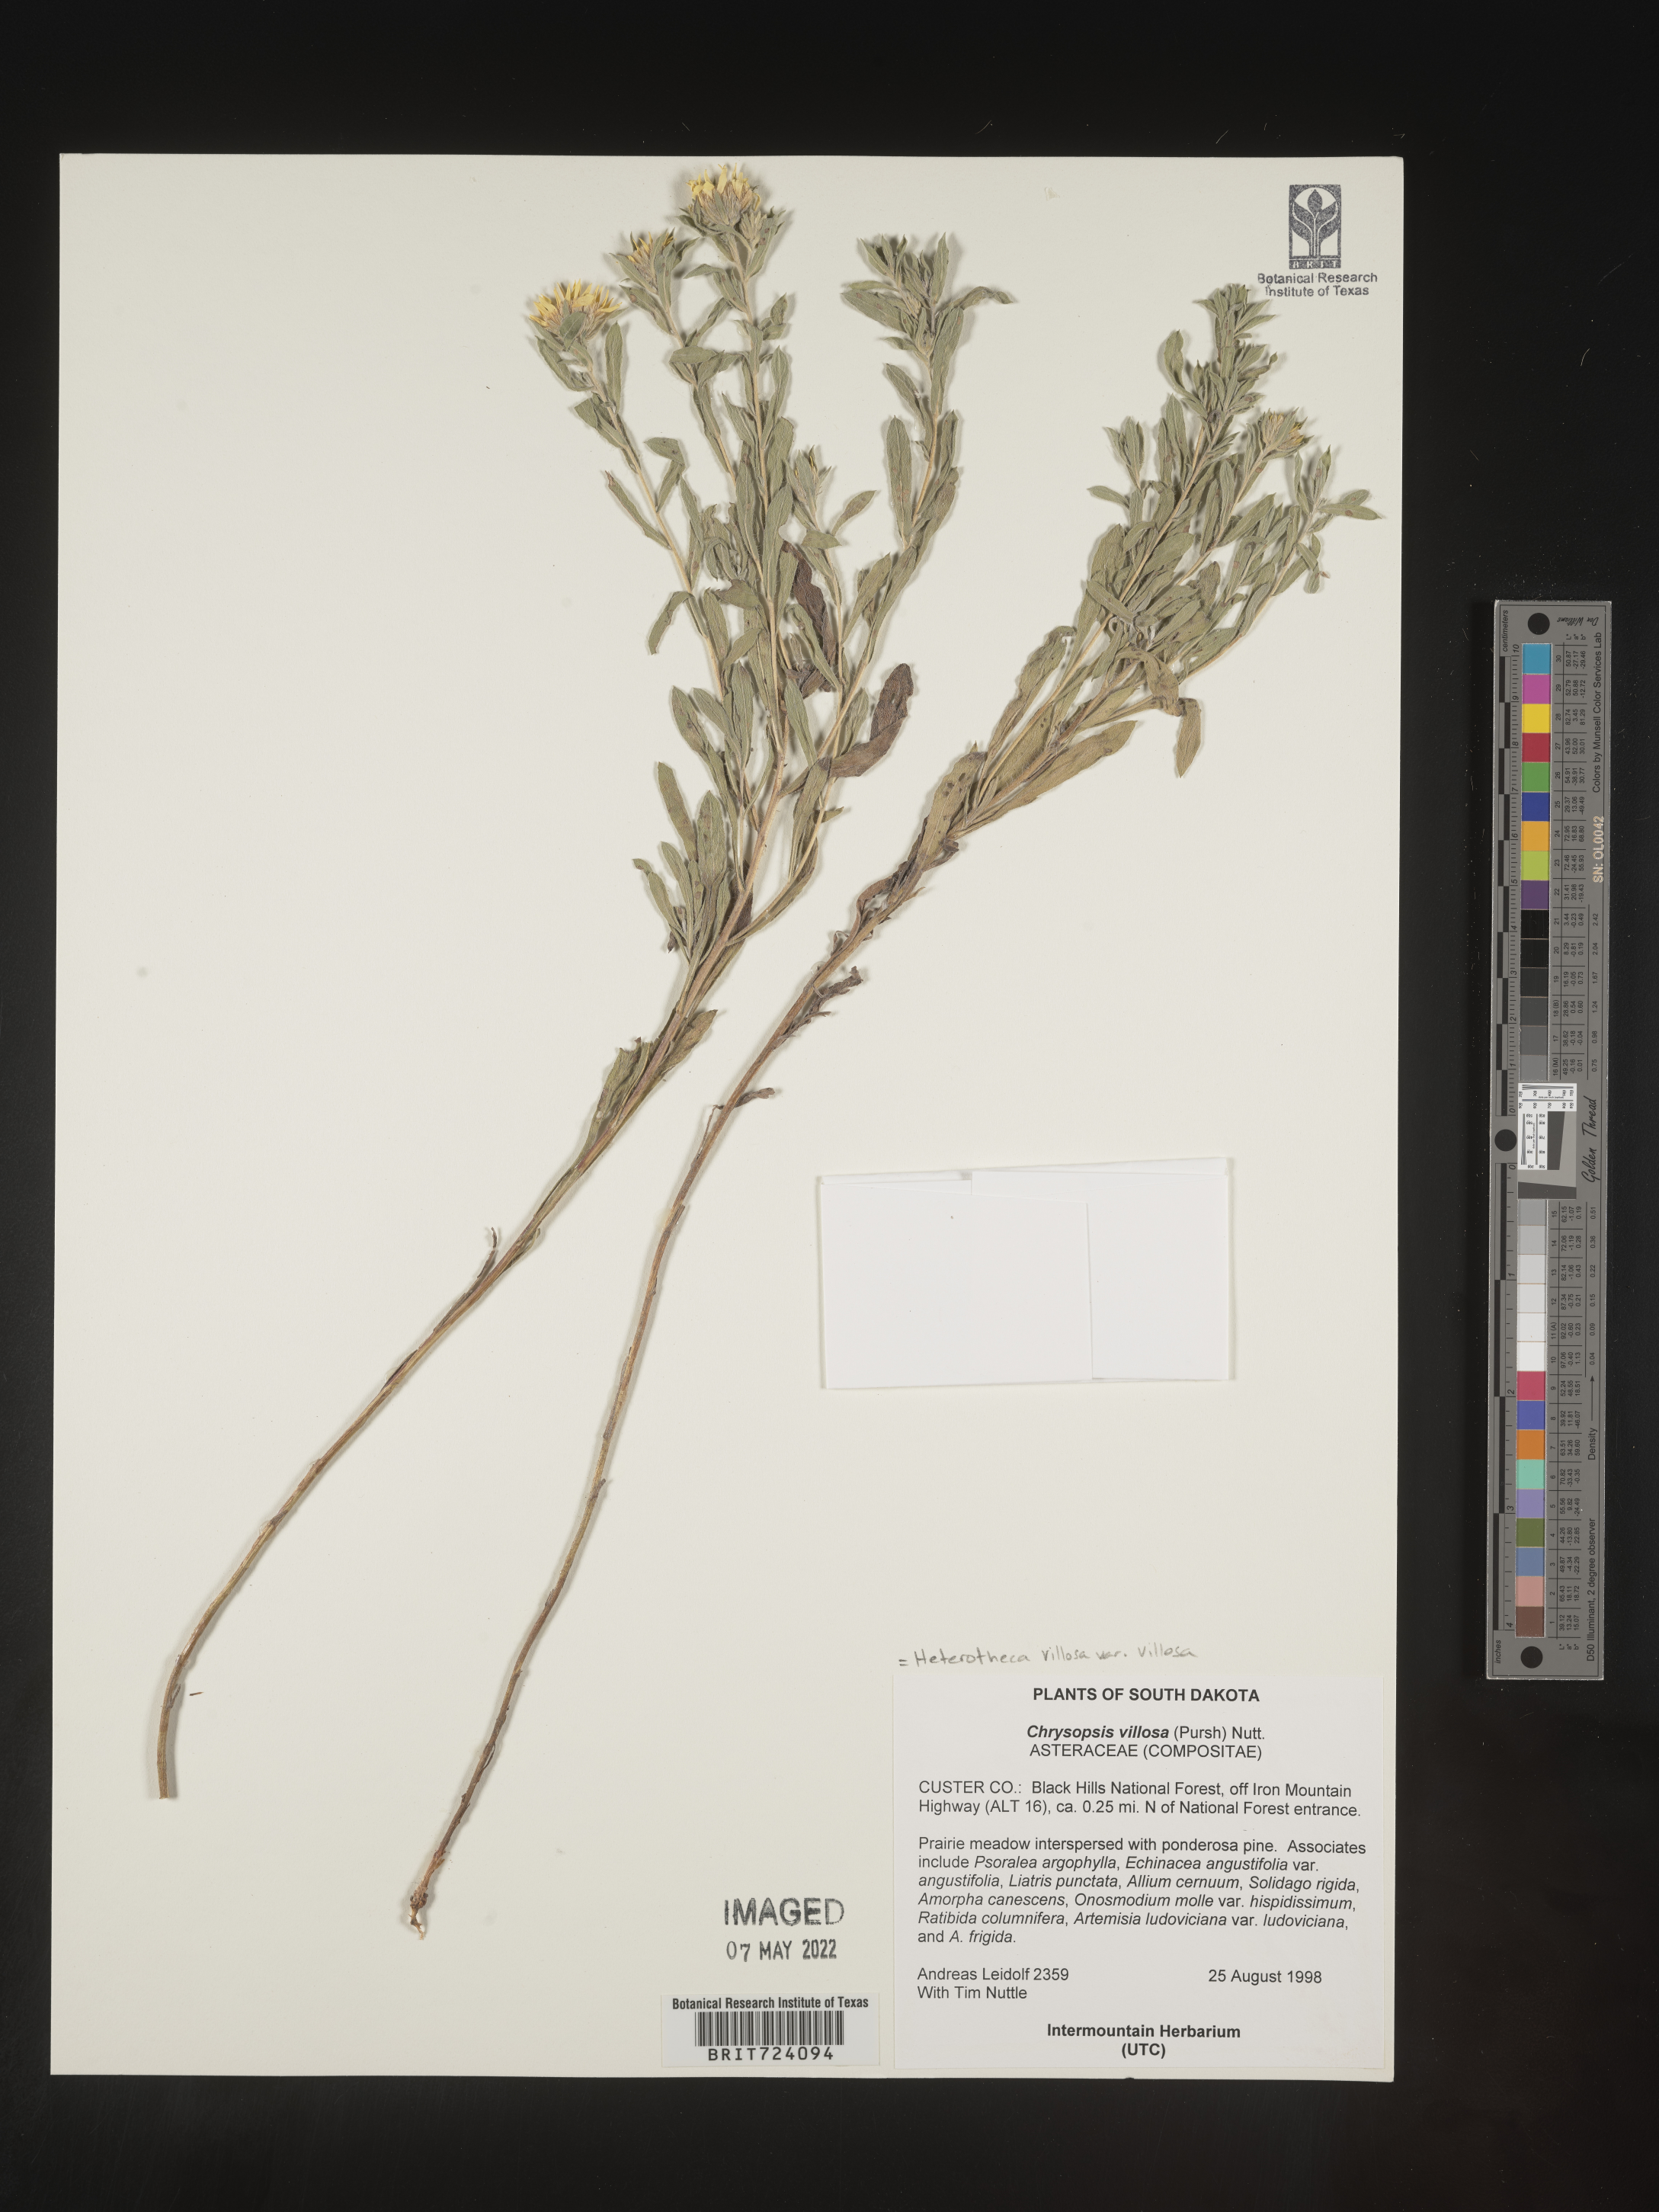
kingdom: Plantae
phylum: Tracheophyta
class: Magnoliopsida
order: Asterales
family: Asteraceae
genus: Heterotheca
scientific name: Heterotheca villosa
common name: Hairy false goldenaster
